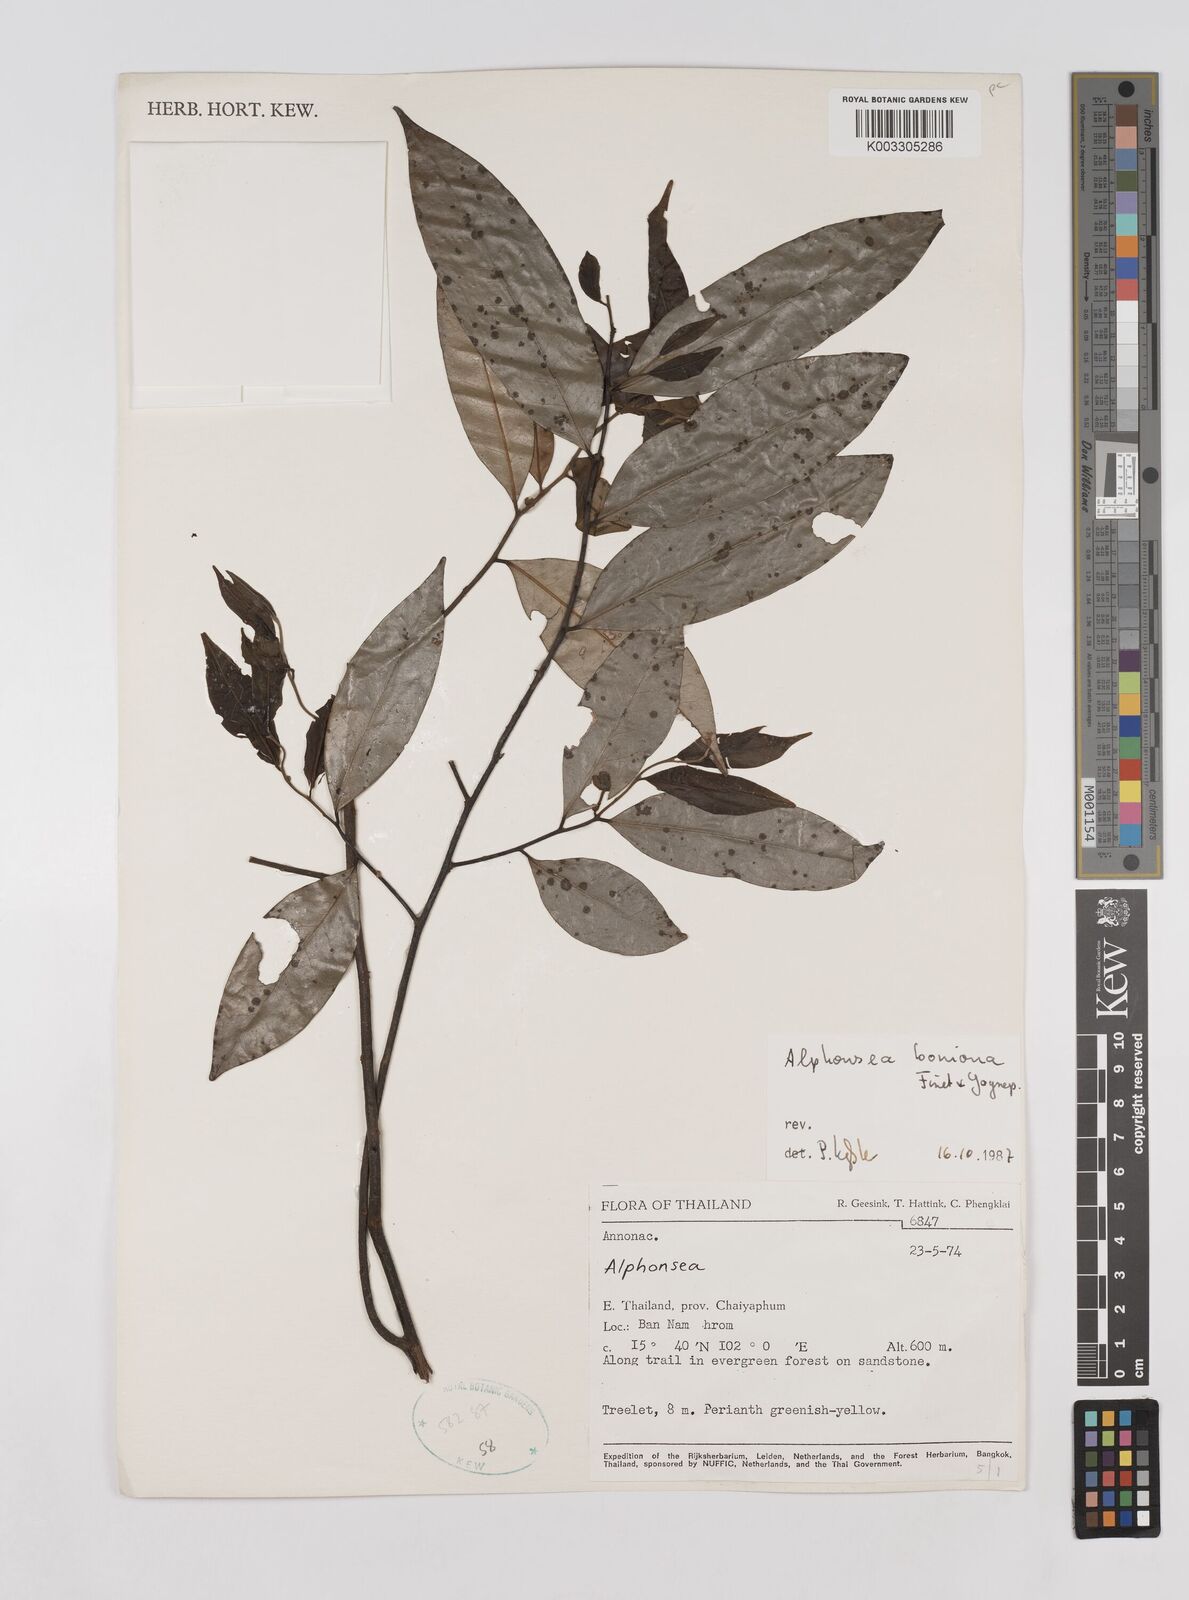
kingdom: Plantae
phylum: Tracheophyta
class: Magnoliopsida
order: Magnoliales
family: Annonaceae
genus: Alphonsea
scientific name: Alphonsea boniana
